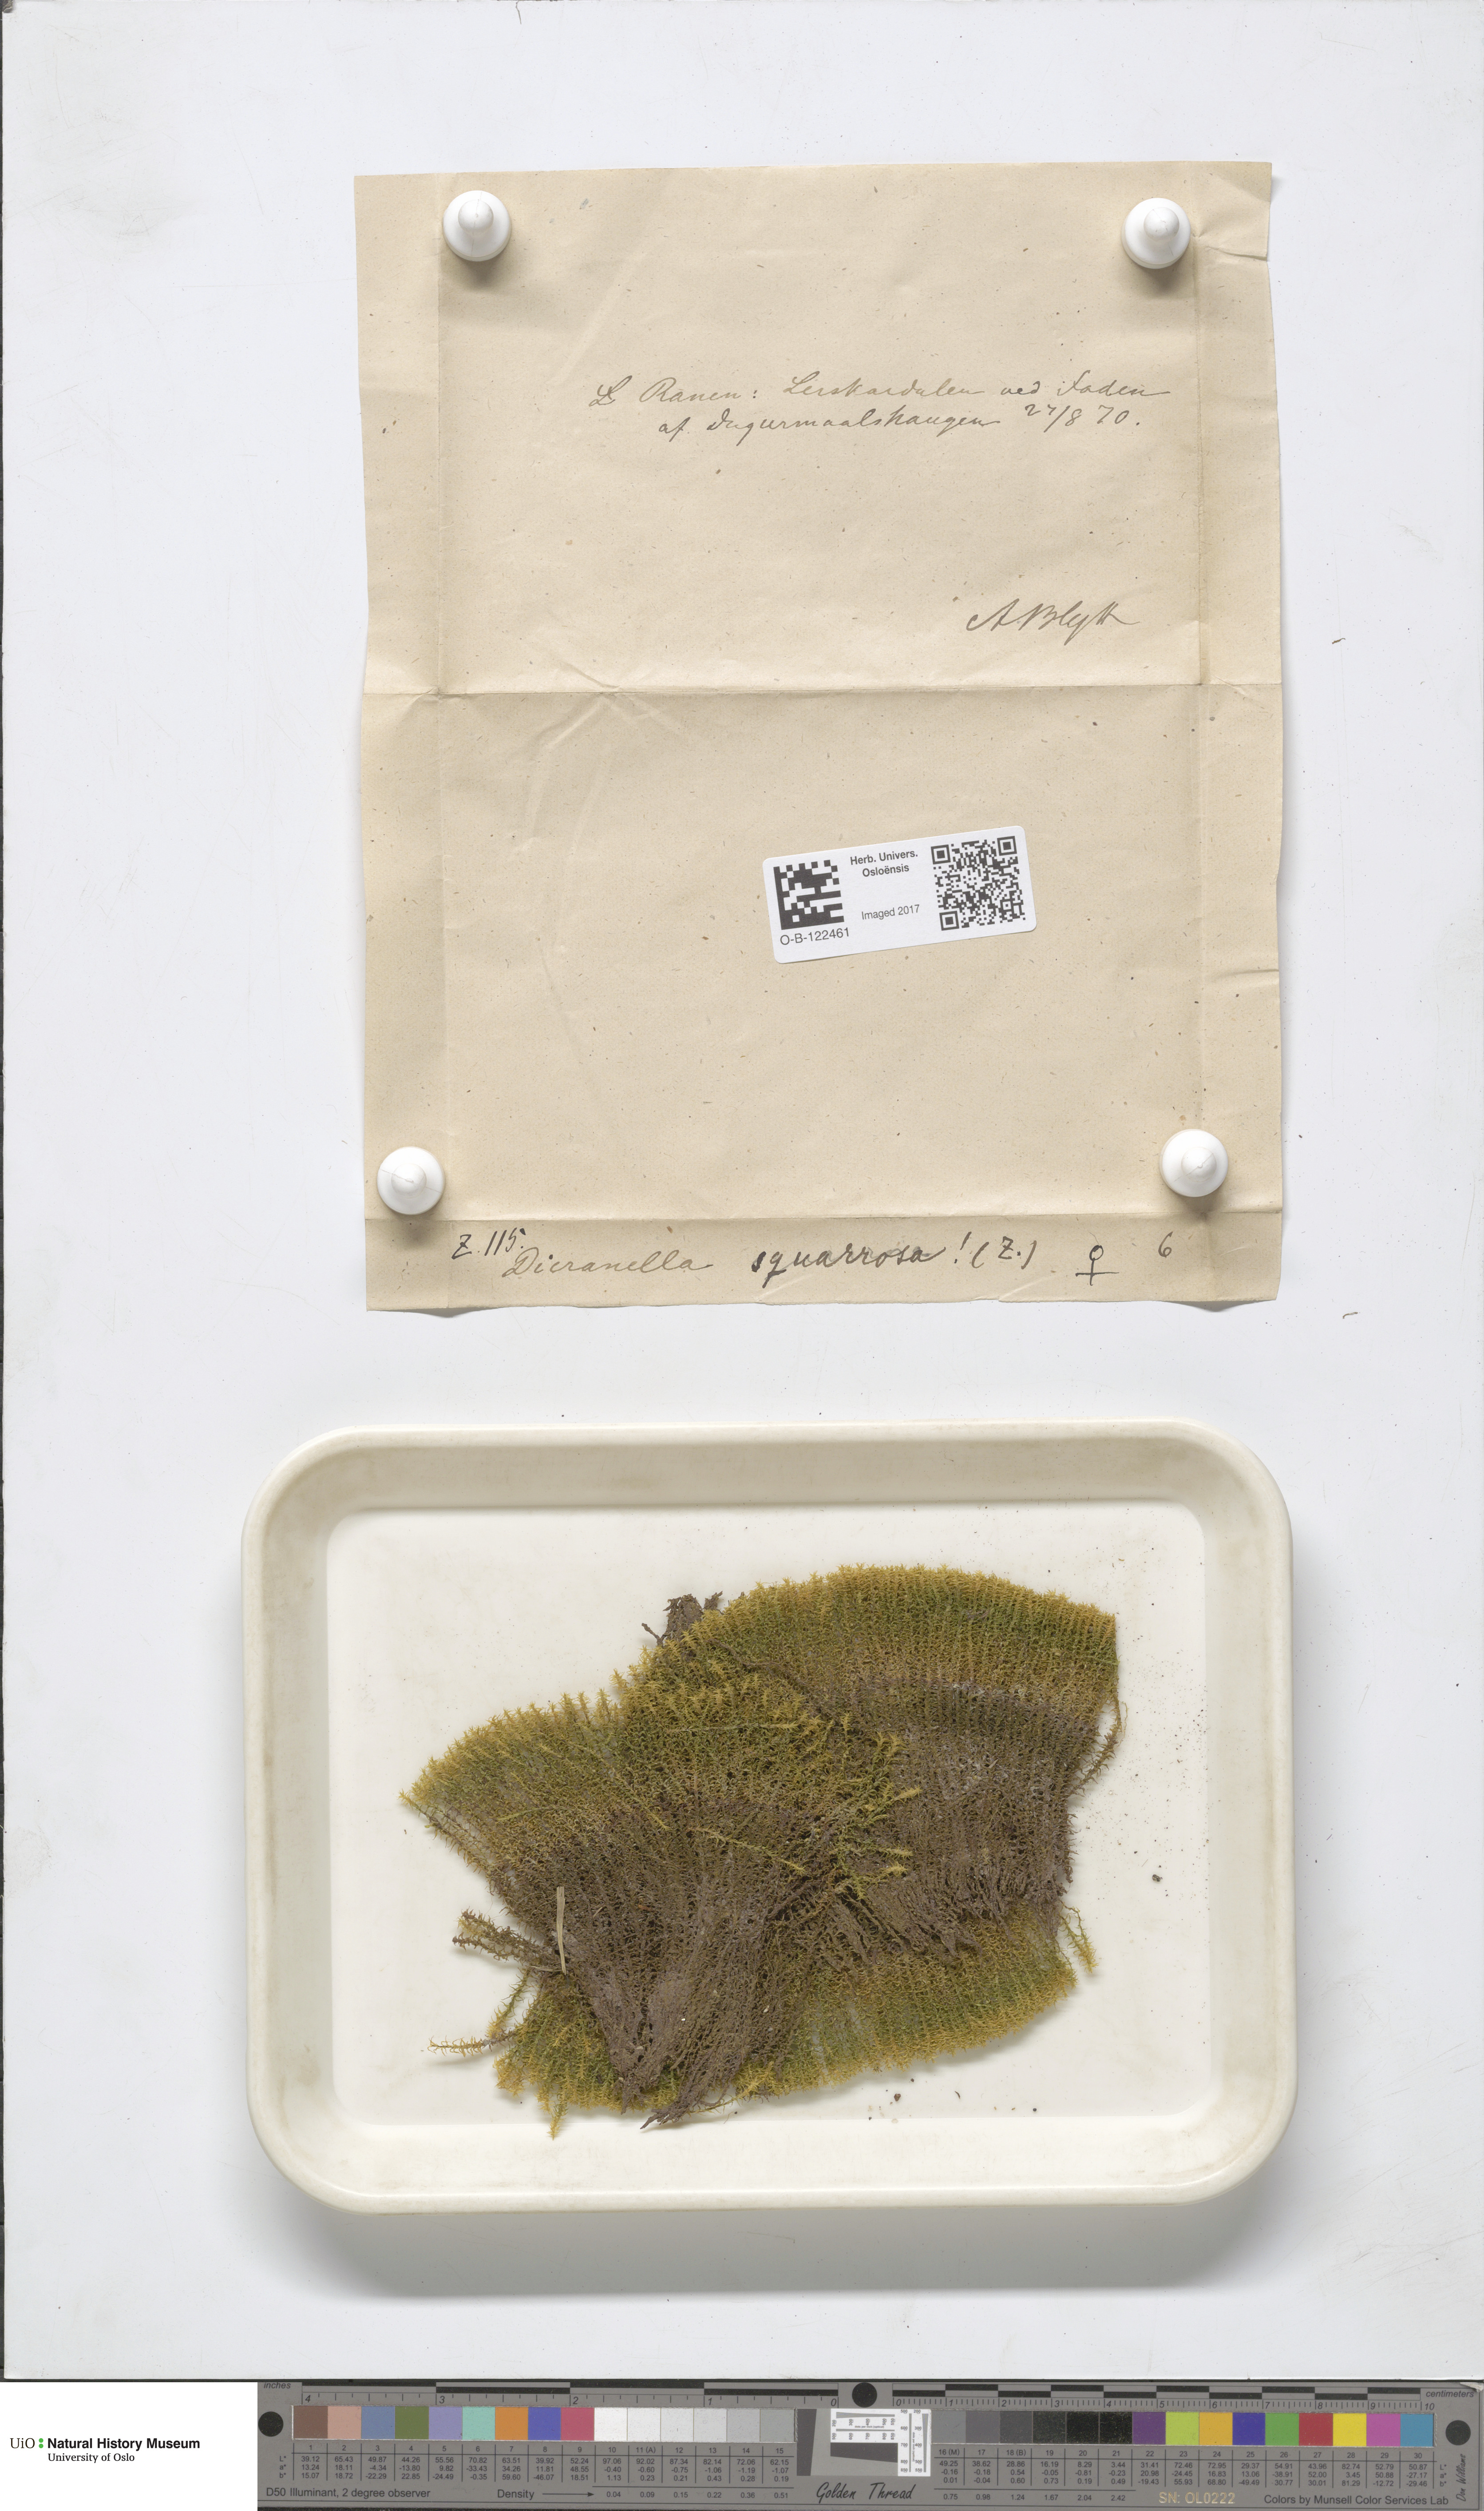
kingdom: Plantae
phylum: Bryophyta
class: Bryopsida
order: Dicranales
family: Aongstroemiaceae
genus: Diobelonella
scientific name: Diobelonella palustris
